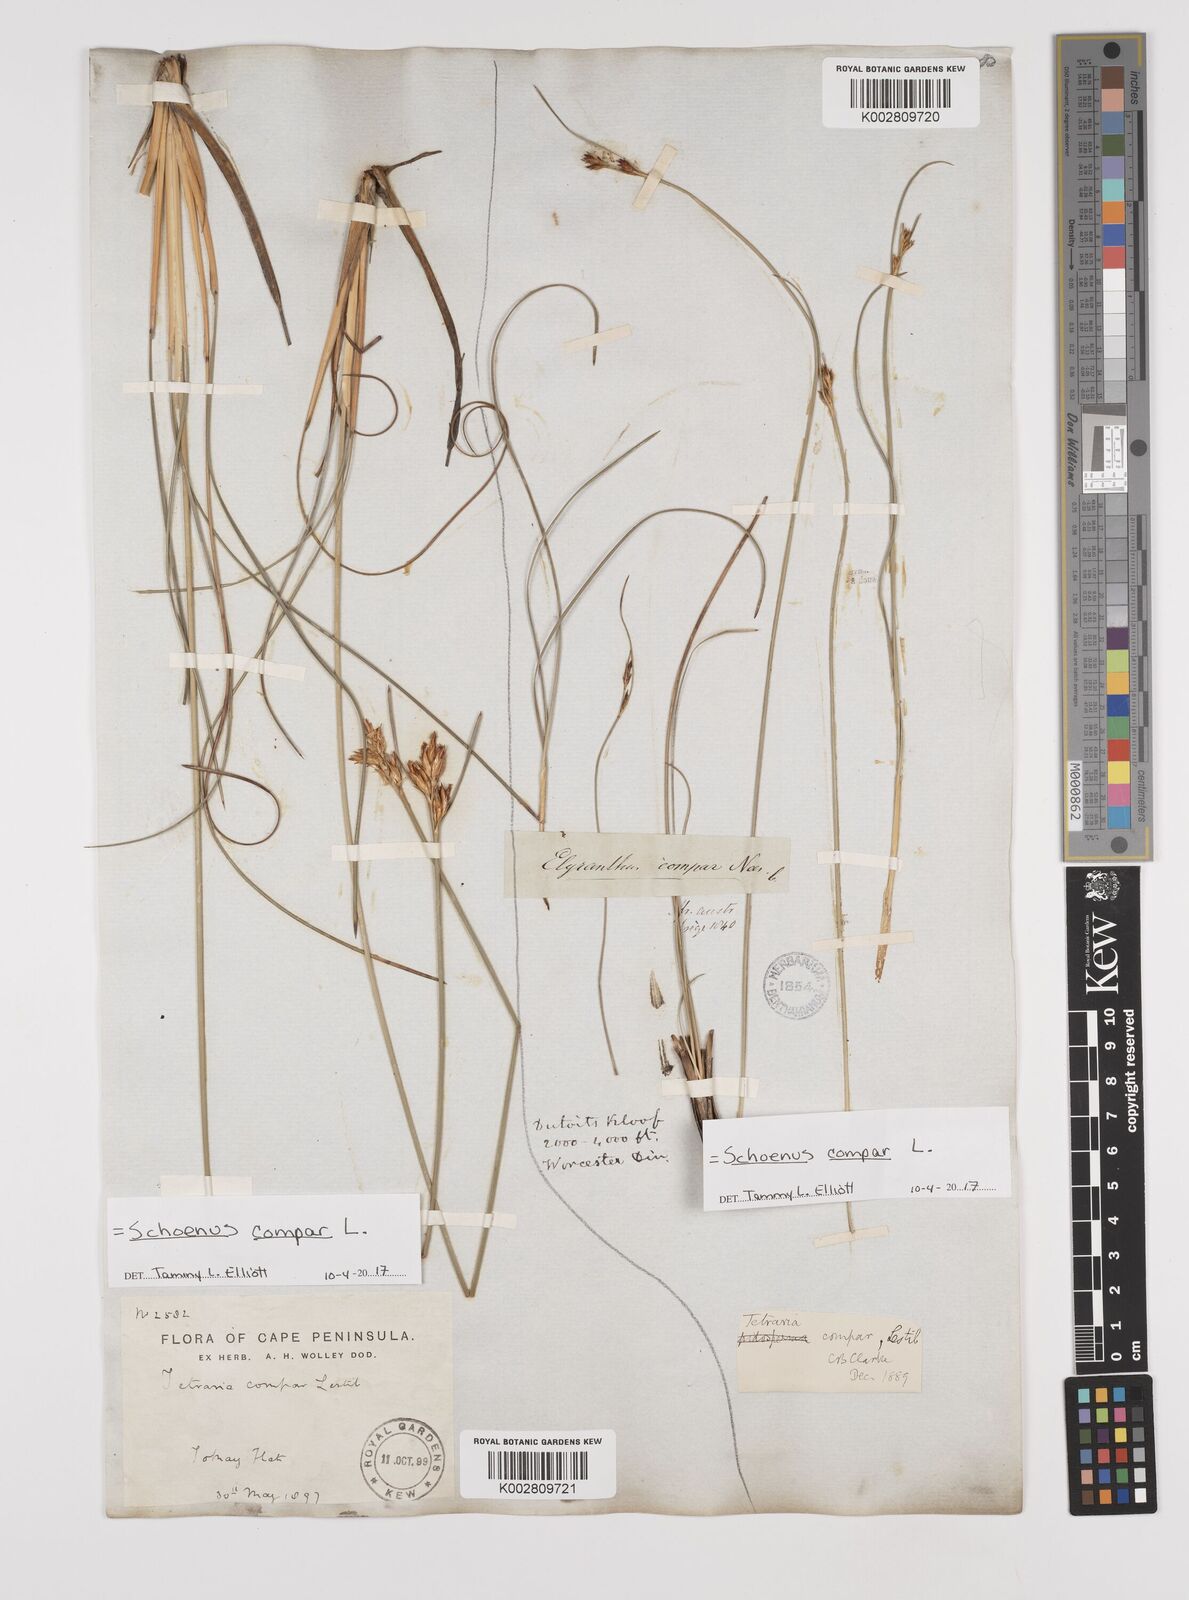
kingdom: Plantae
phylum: Tracheophyta
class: Liliopsida
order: Poales
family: Cyperaceae
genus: Schoenus
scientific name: Schoenus compar
